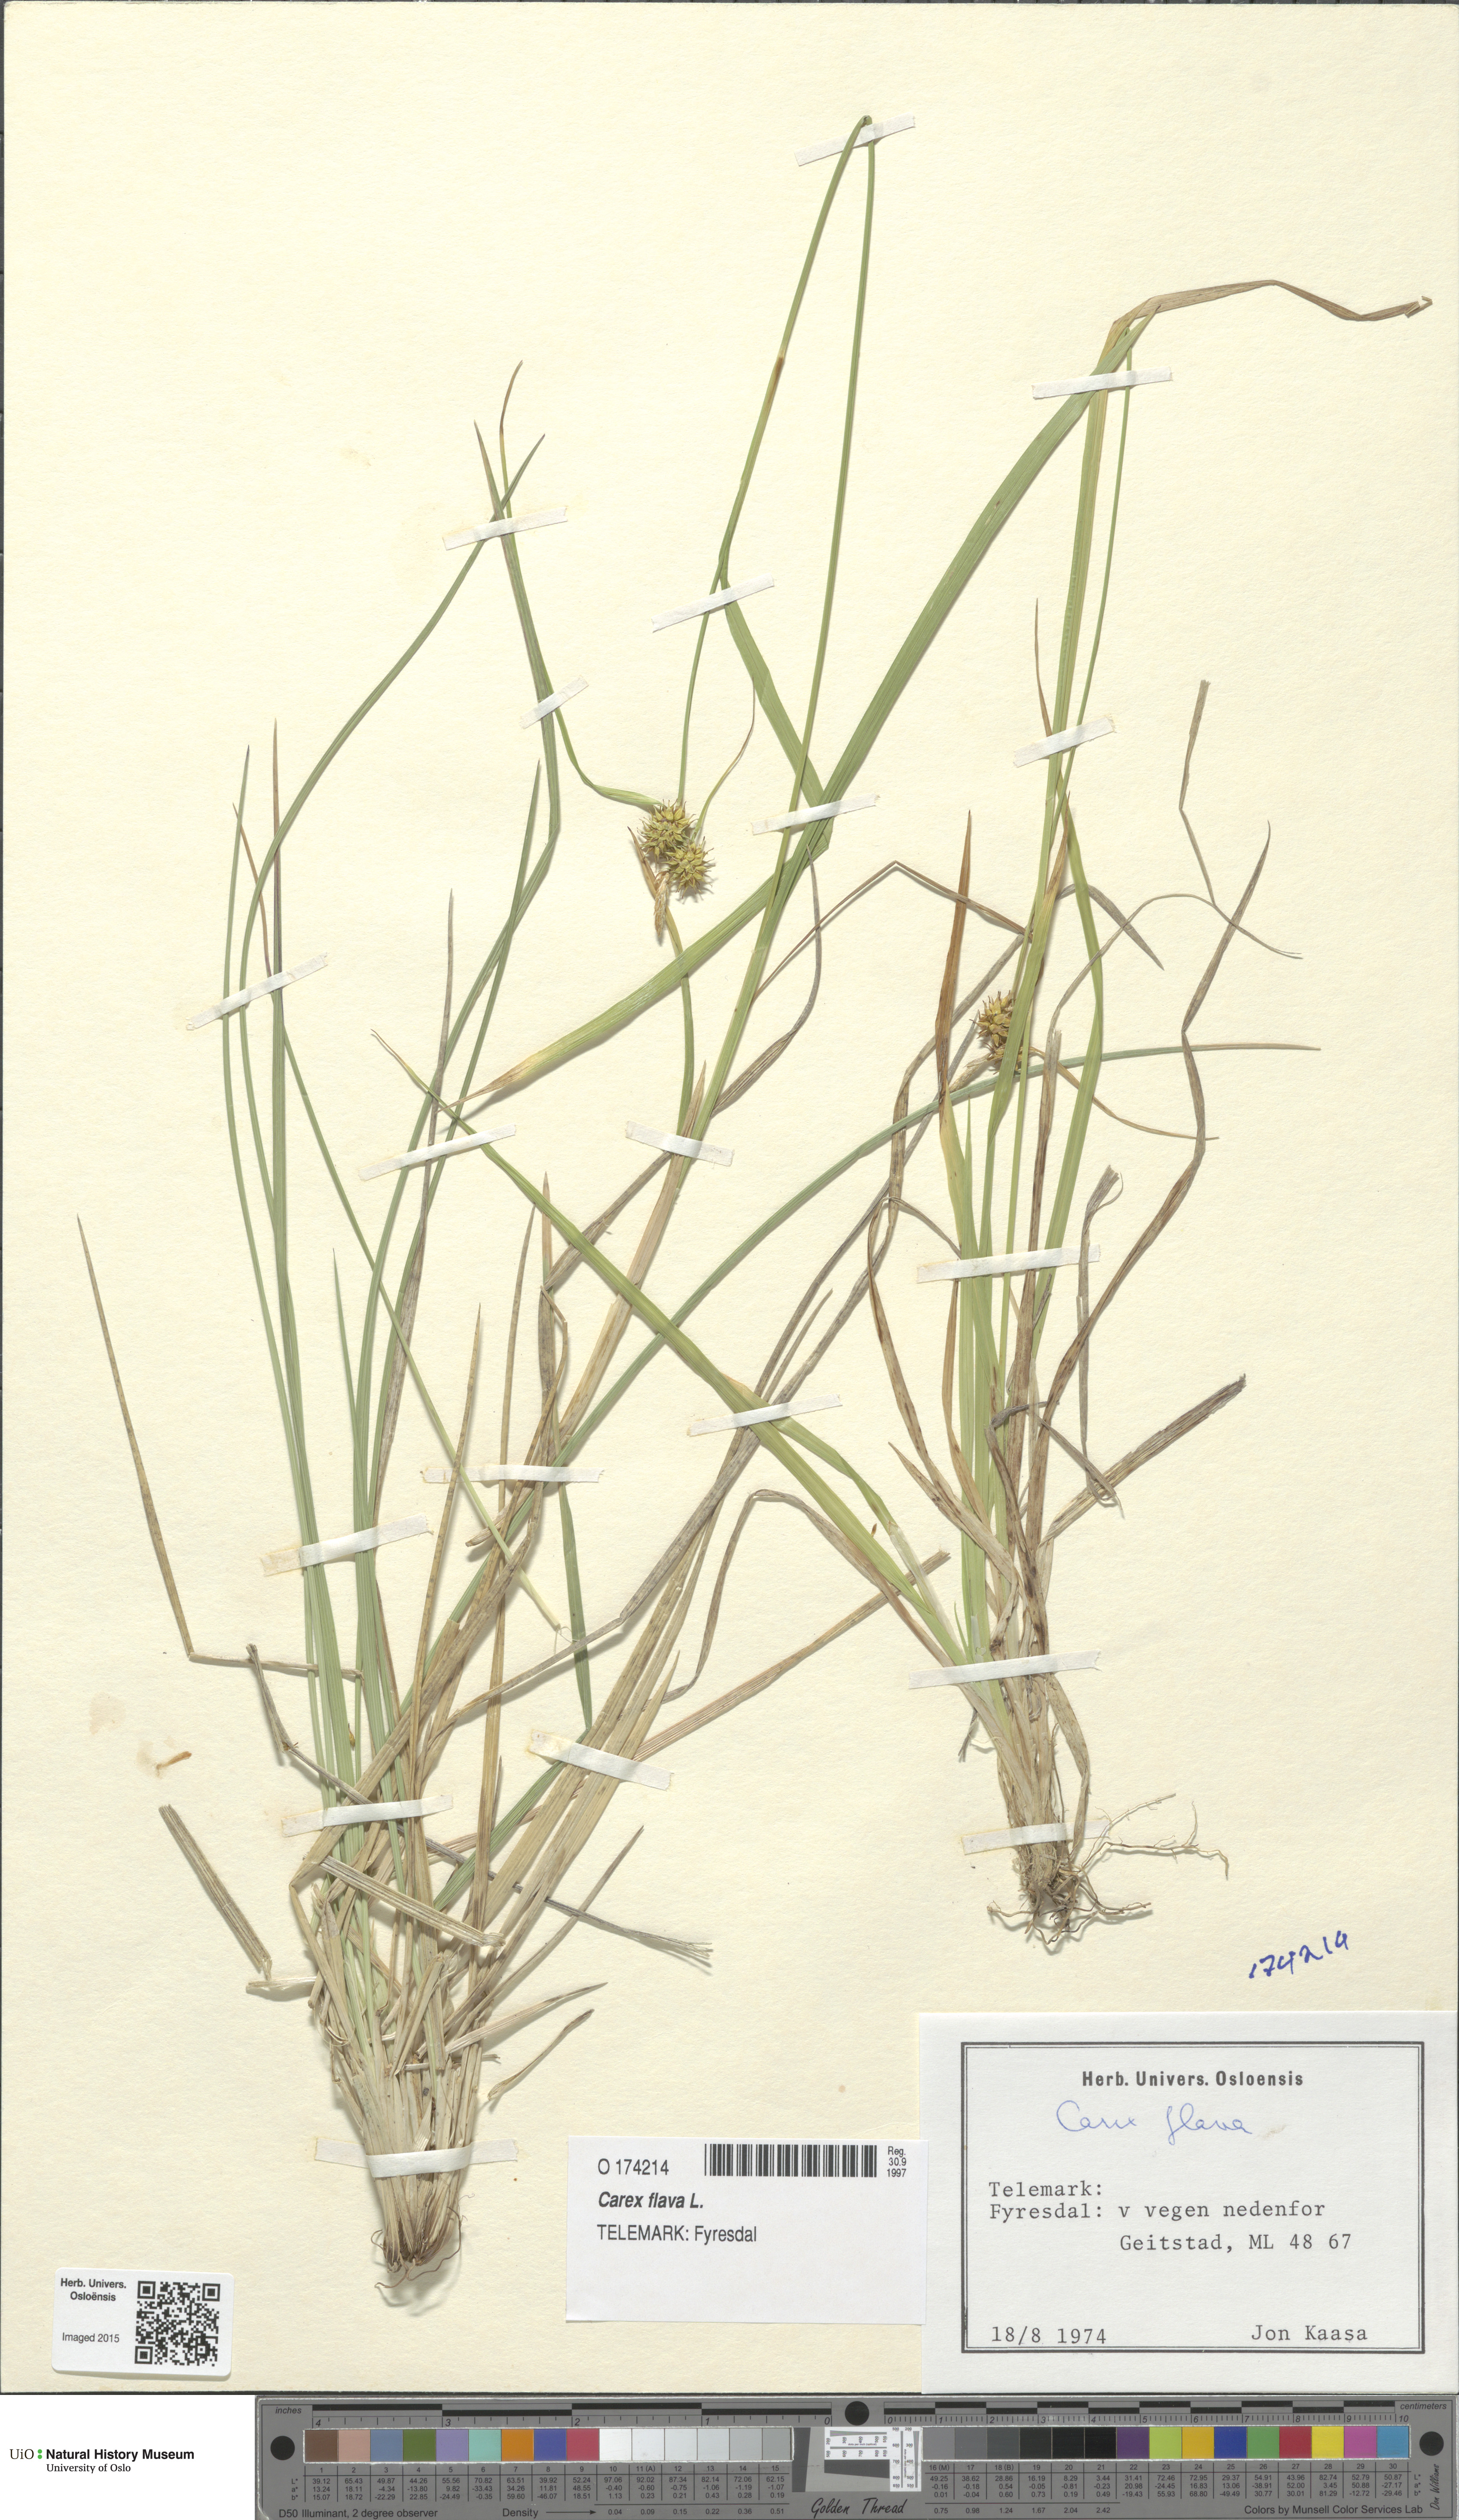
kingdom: Plantae
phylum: Tracheophyta
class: Liliopsida
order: Poales
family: Cyperaceae
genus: Carex
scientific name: Carex flava
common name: Large yellow-sedge
